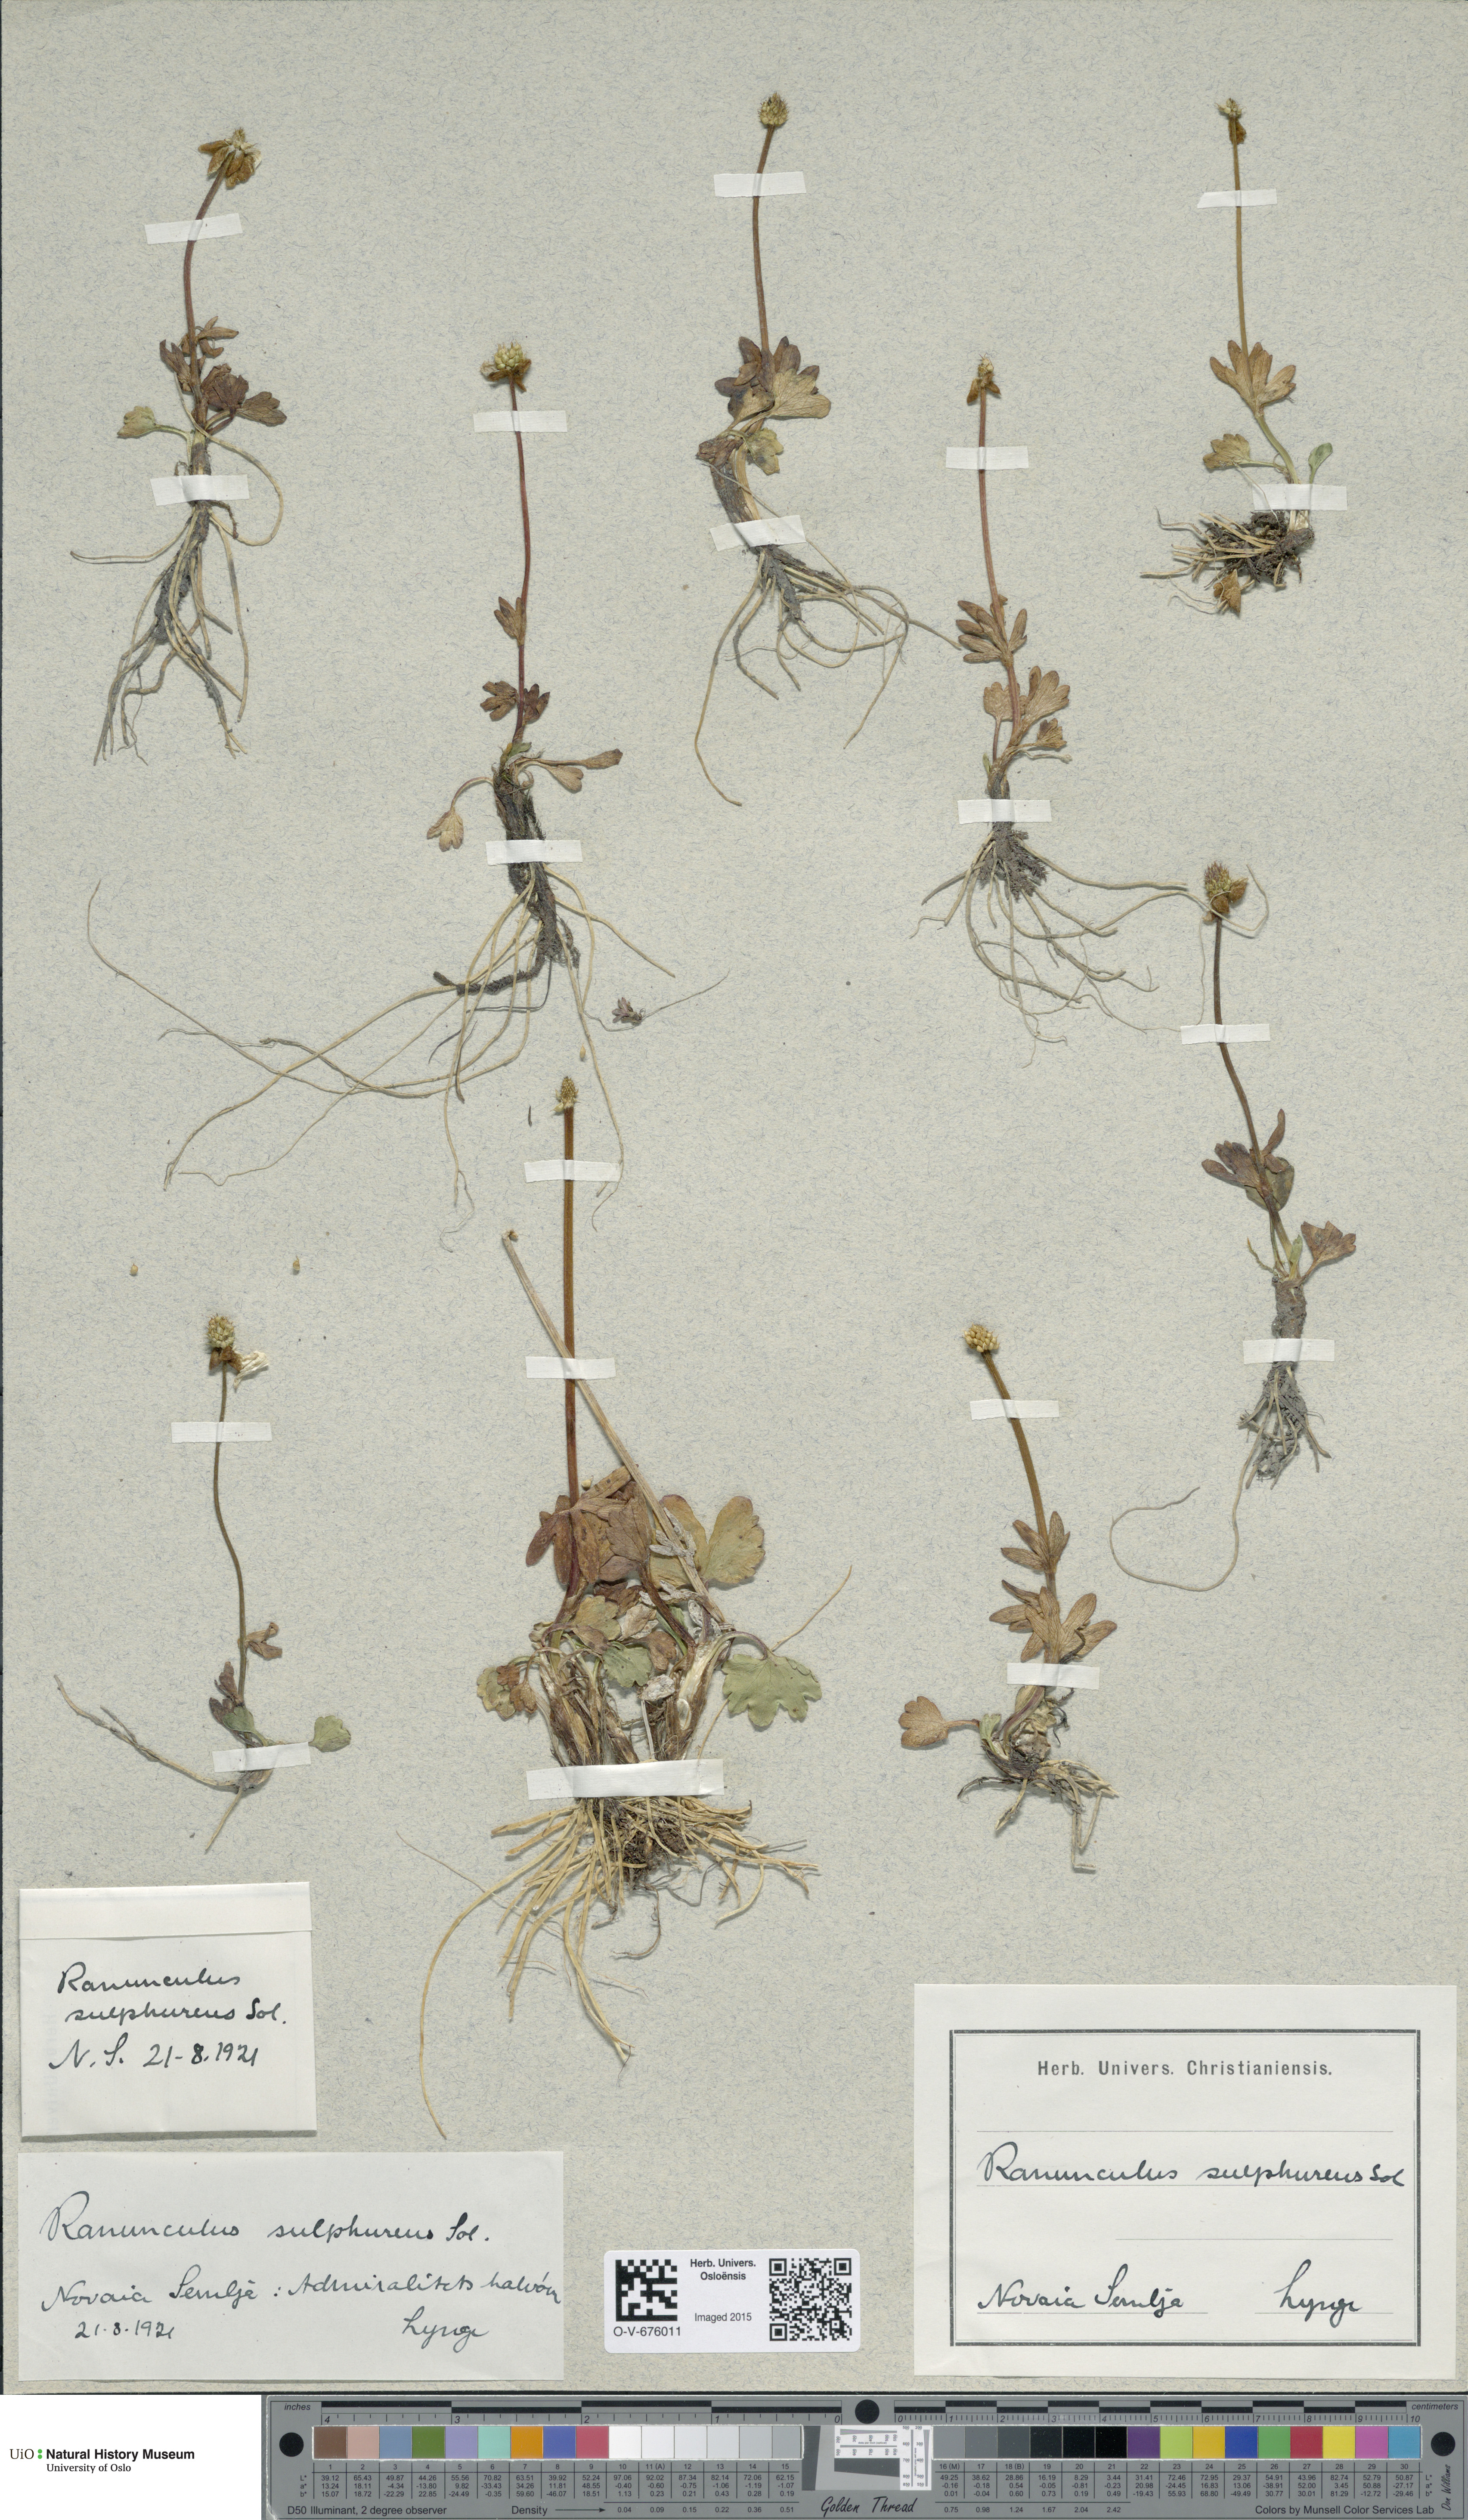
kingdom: Plantae
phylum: Tracheophyta
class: Magnoliopsida
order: Ranunculales
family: Ranunculaceae
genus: Ranunculus
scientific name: Ranunculus sulphureus
